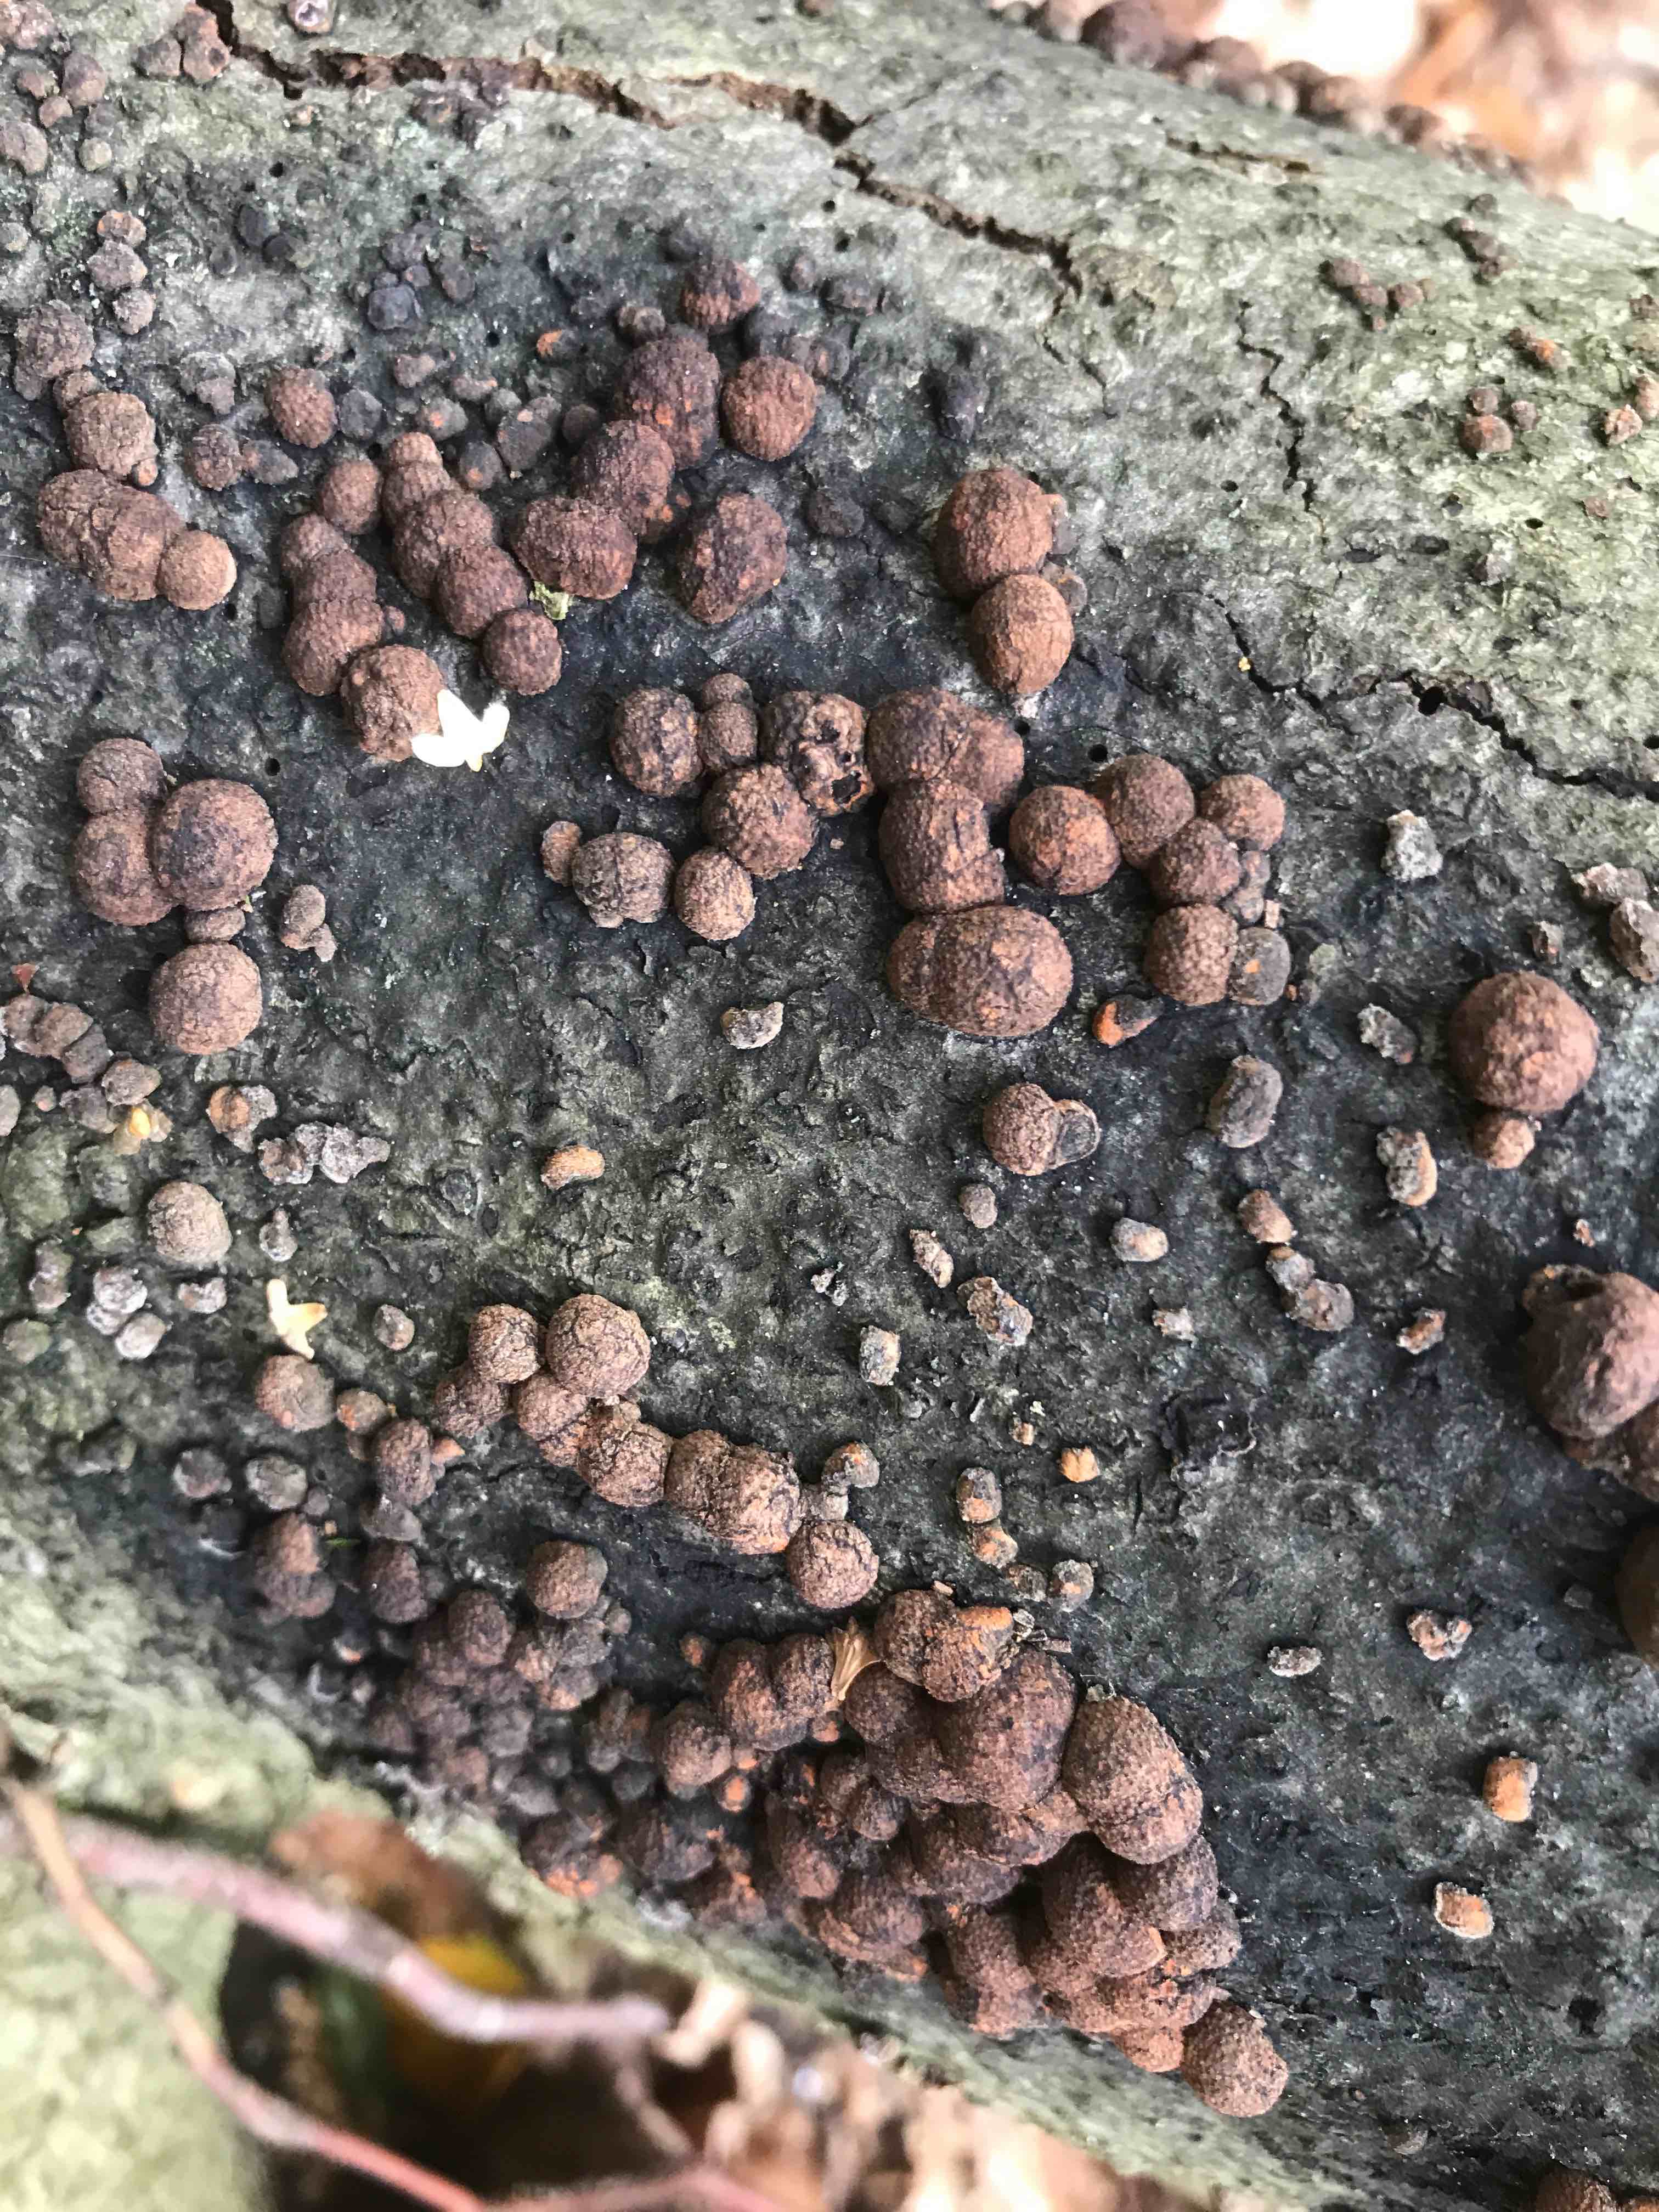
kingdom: Fungi
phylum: Ascomycota
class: Sordariomycetes
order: Xylariales
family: Hypoxylaceae
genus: Hypoxylon
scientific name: Hypoxylon fragiforme
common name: kuljordbær
